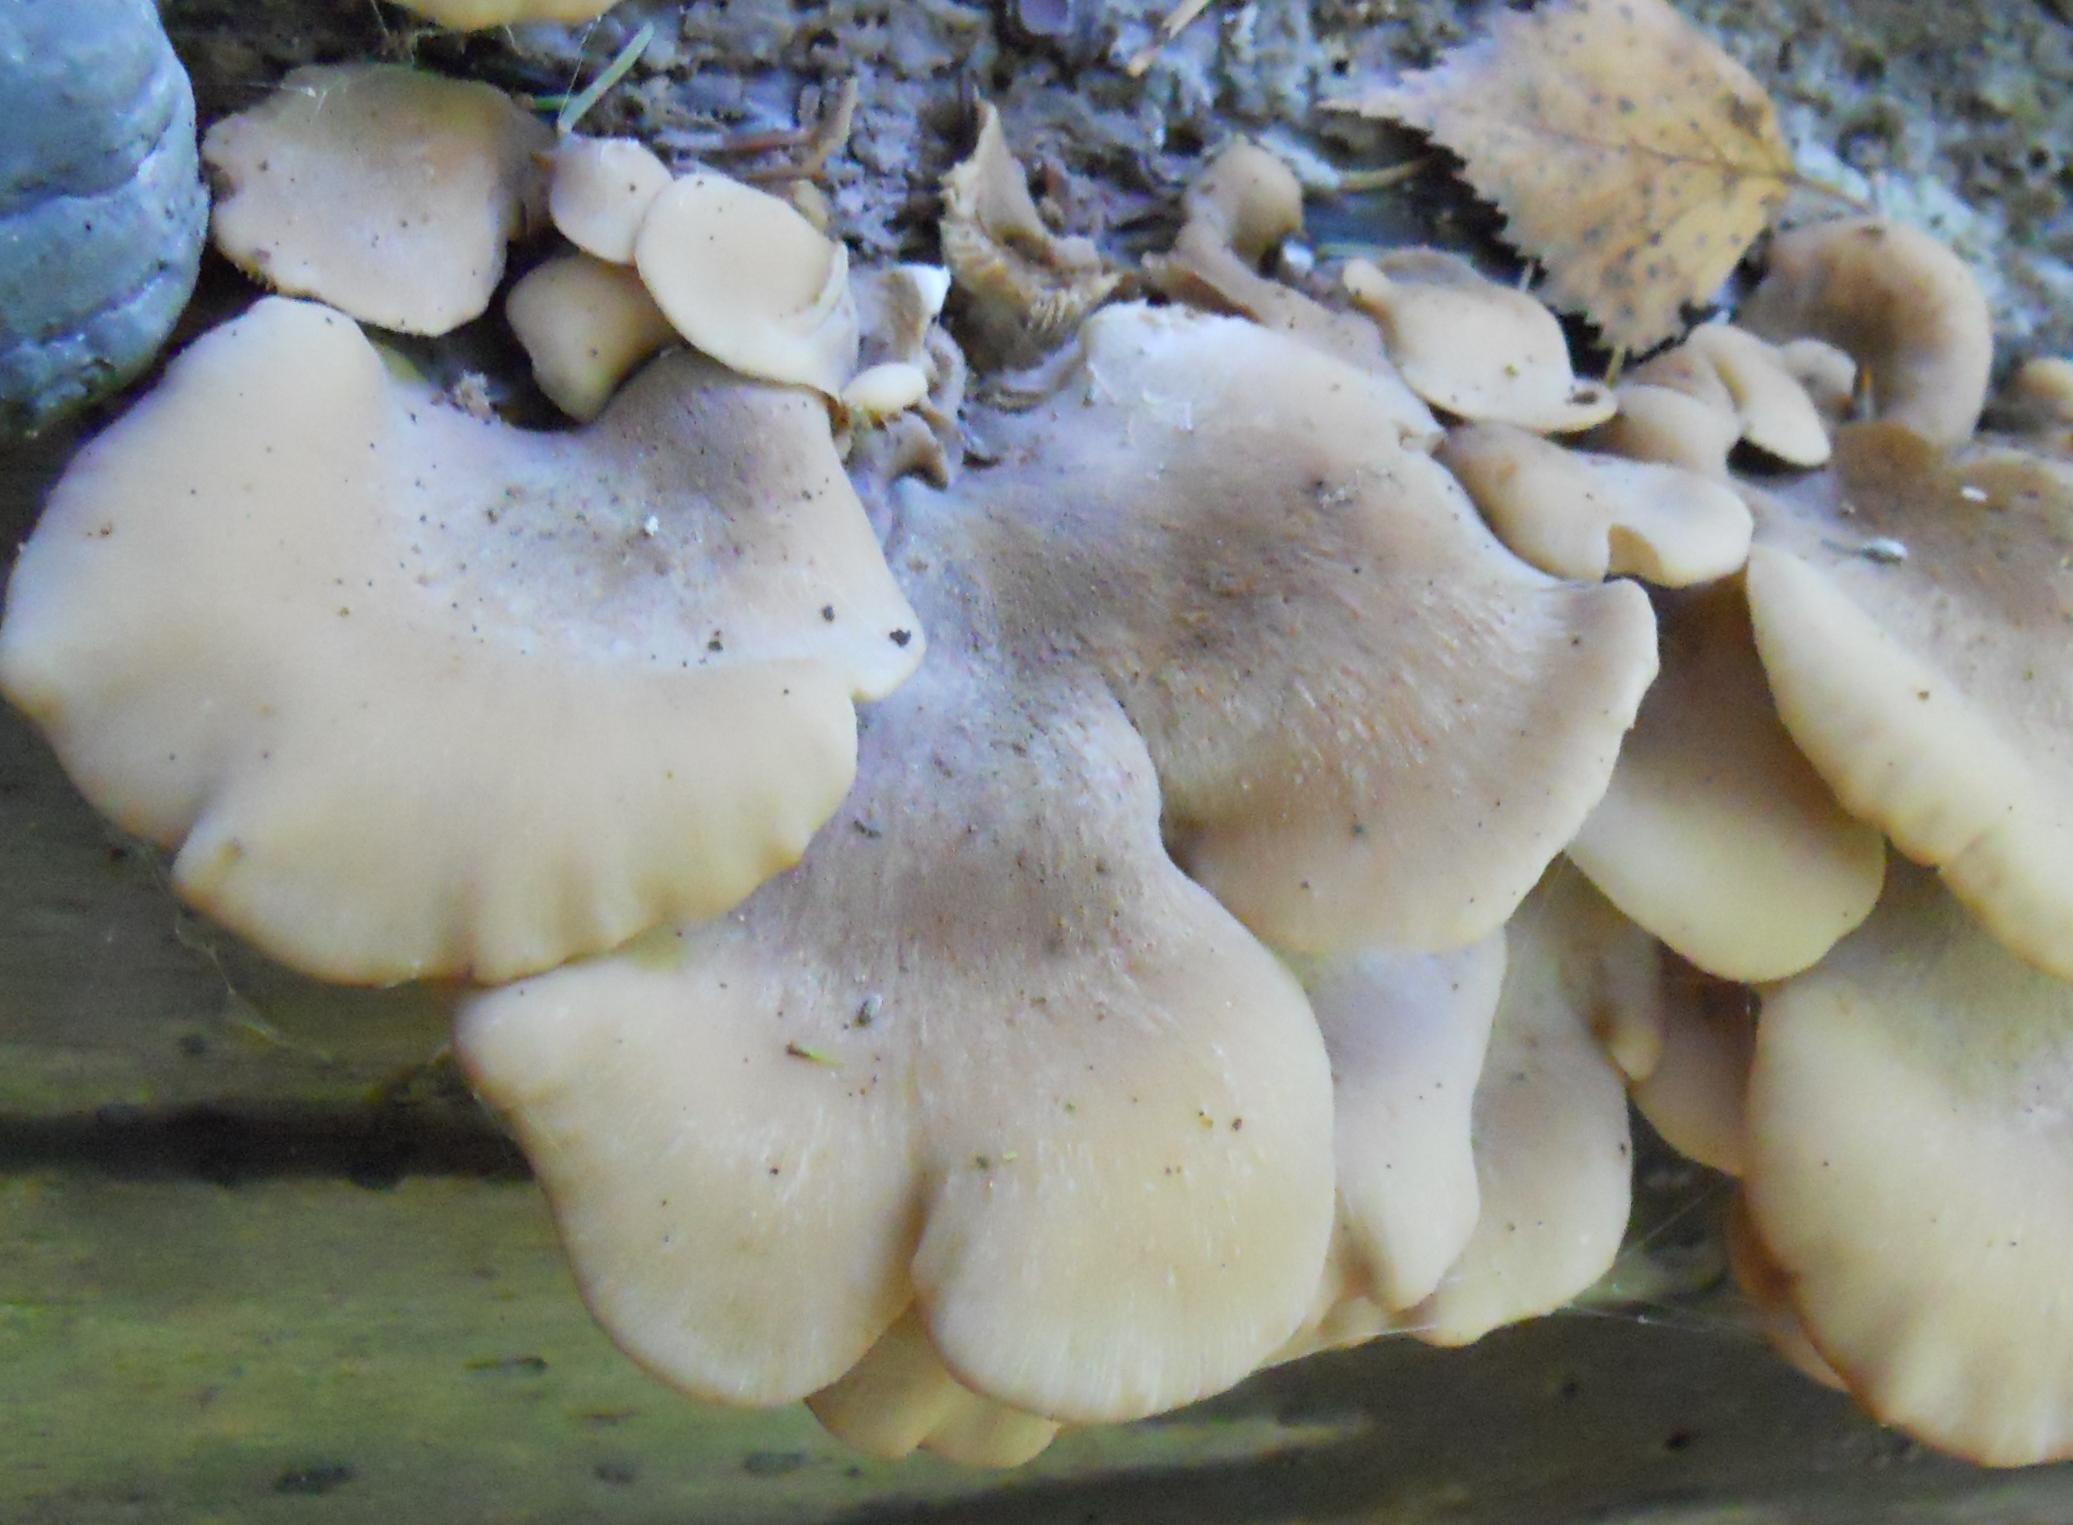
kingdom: Fungi
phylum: Basidiomycota
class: Agaricomycetes
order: Russulales
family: Auriscalpiaceae
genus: Lentinellus
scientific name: Lentinellus ursinus
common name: børstehåret savbladhat
